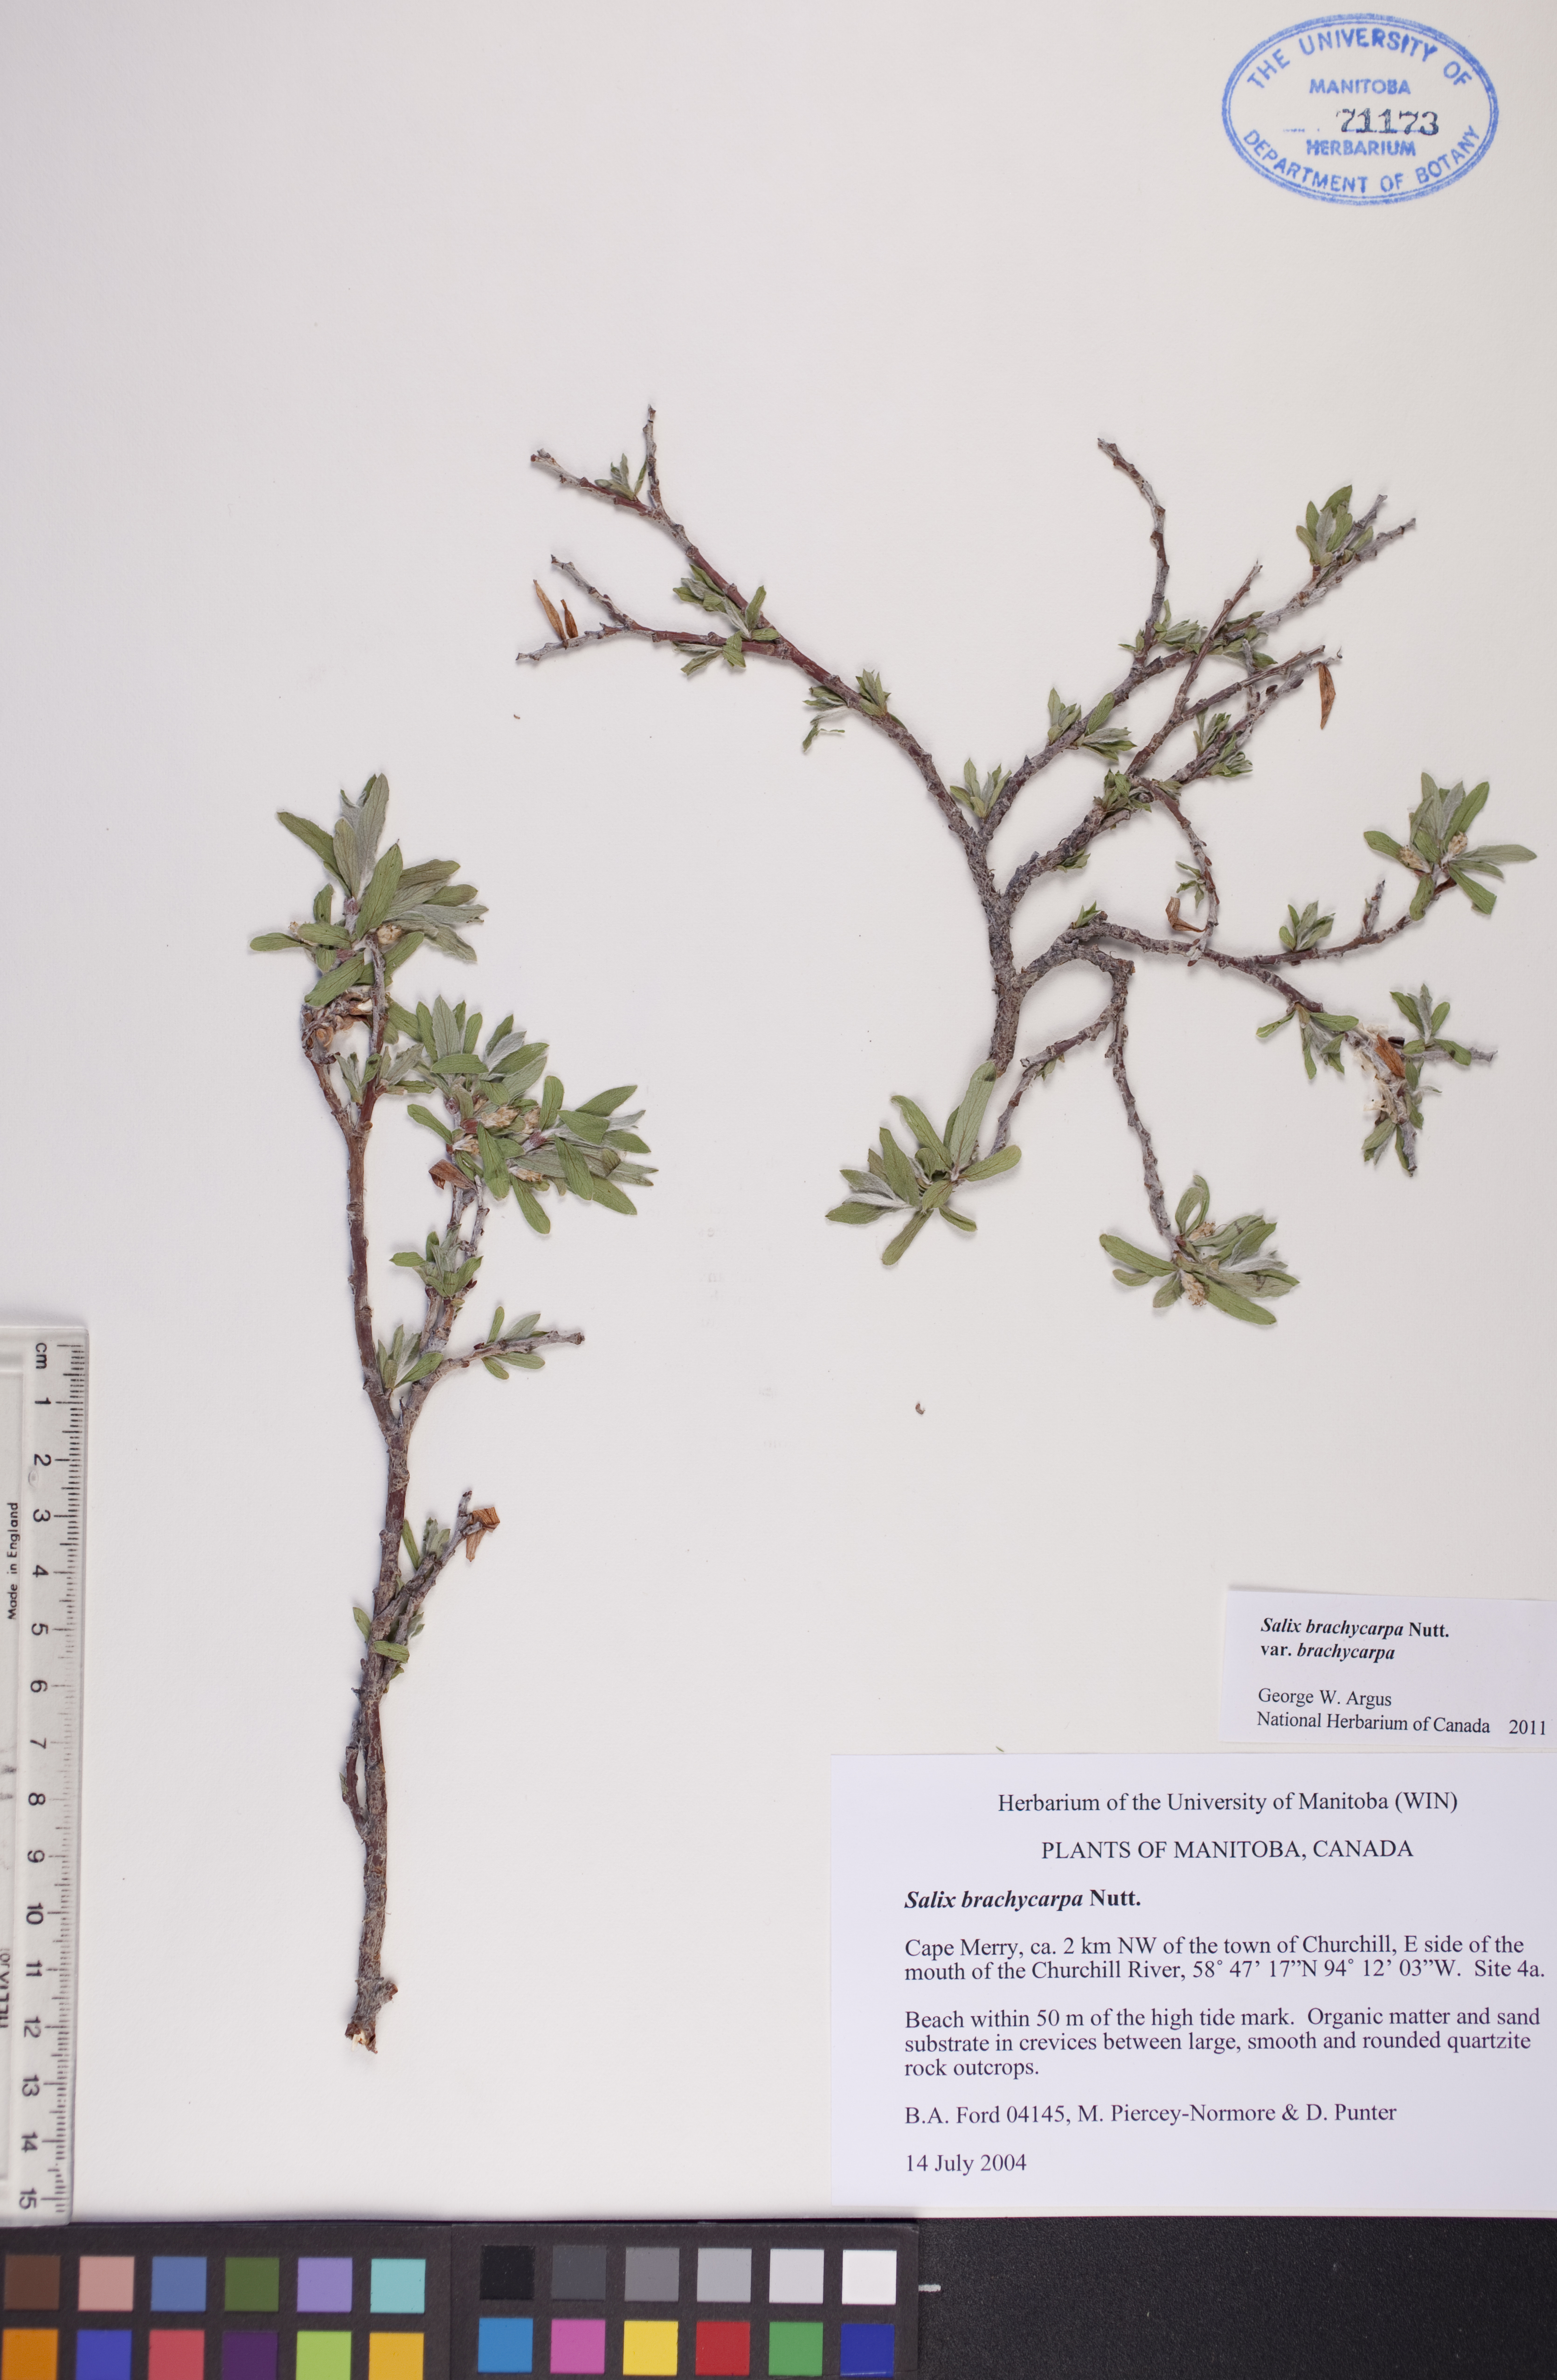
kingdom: Plantae
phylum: Tracheophyta
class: Magnoliopsida
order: Malpighiales
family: Salicaceae
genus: Salix
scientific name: Salix brachycarpa
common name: Barren-ground willow
